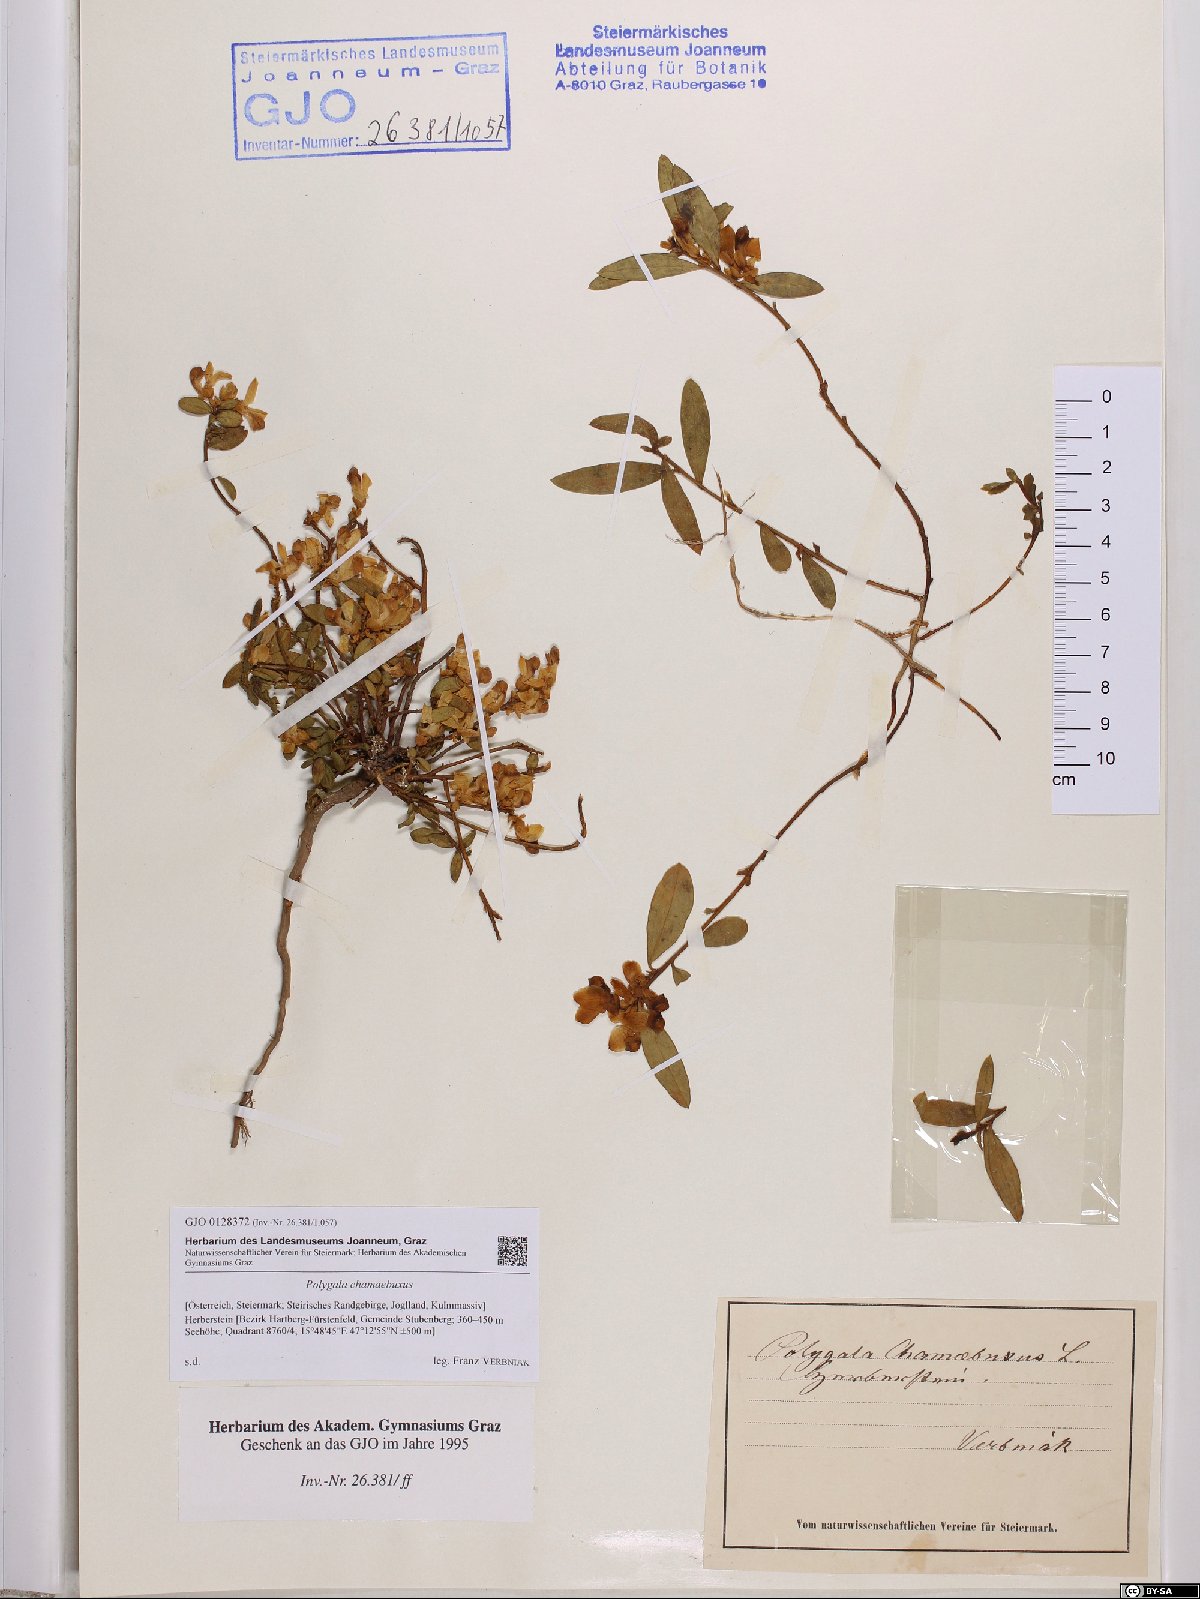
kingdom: Plantae
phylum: Tracheophyta
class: Magnoliopsida
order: Fabales
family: Polygalaceae
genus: Polygaloides
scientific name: Polygaloides chamaebuxus
